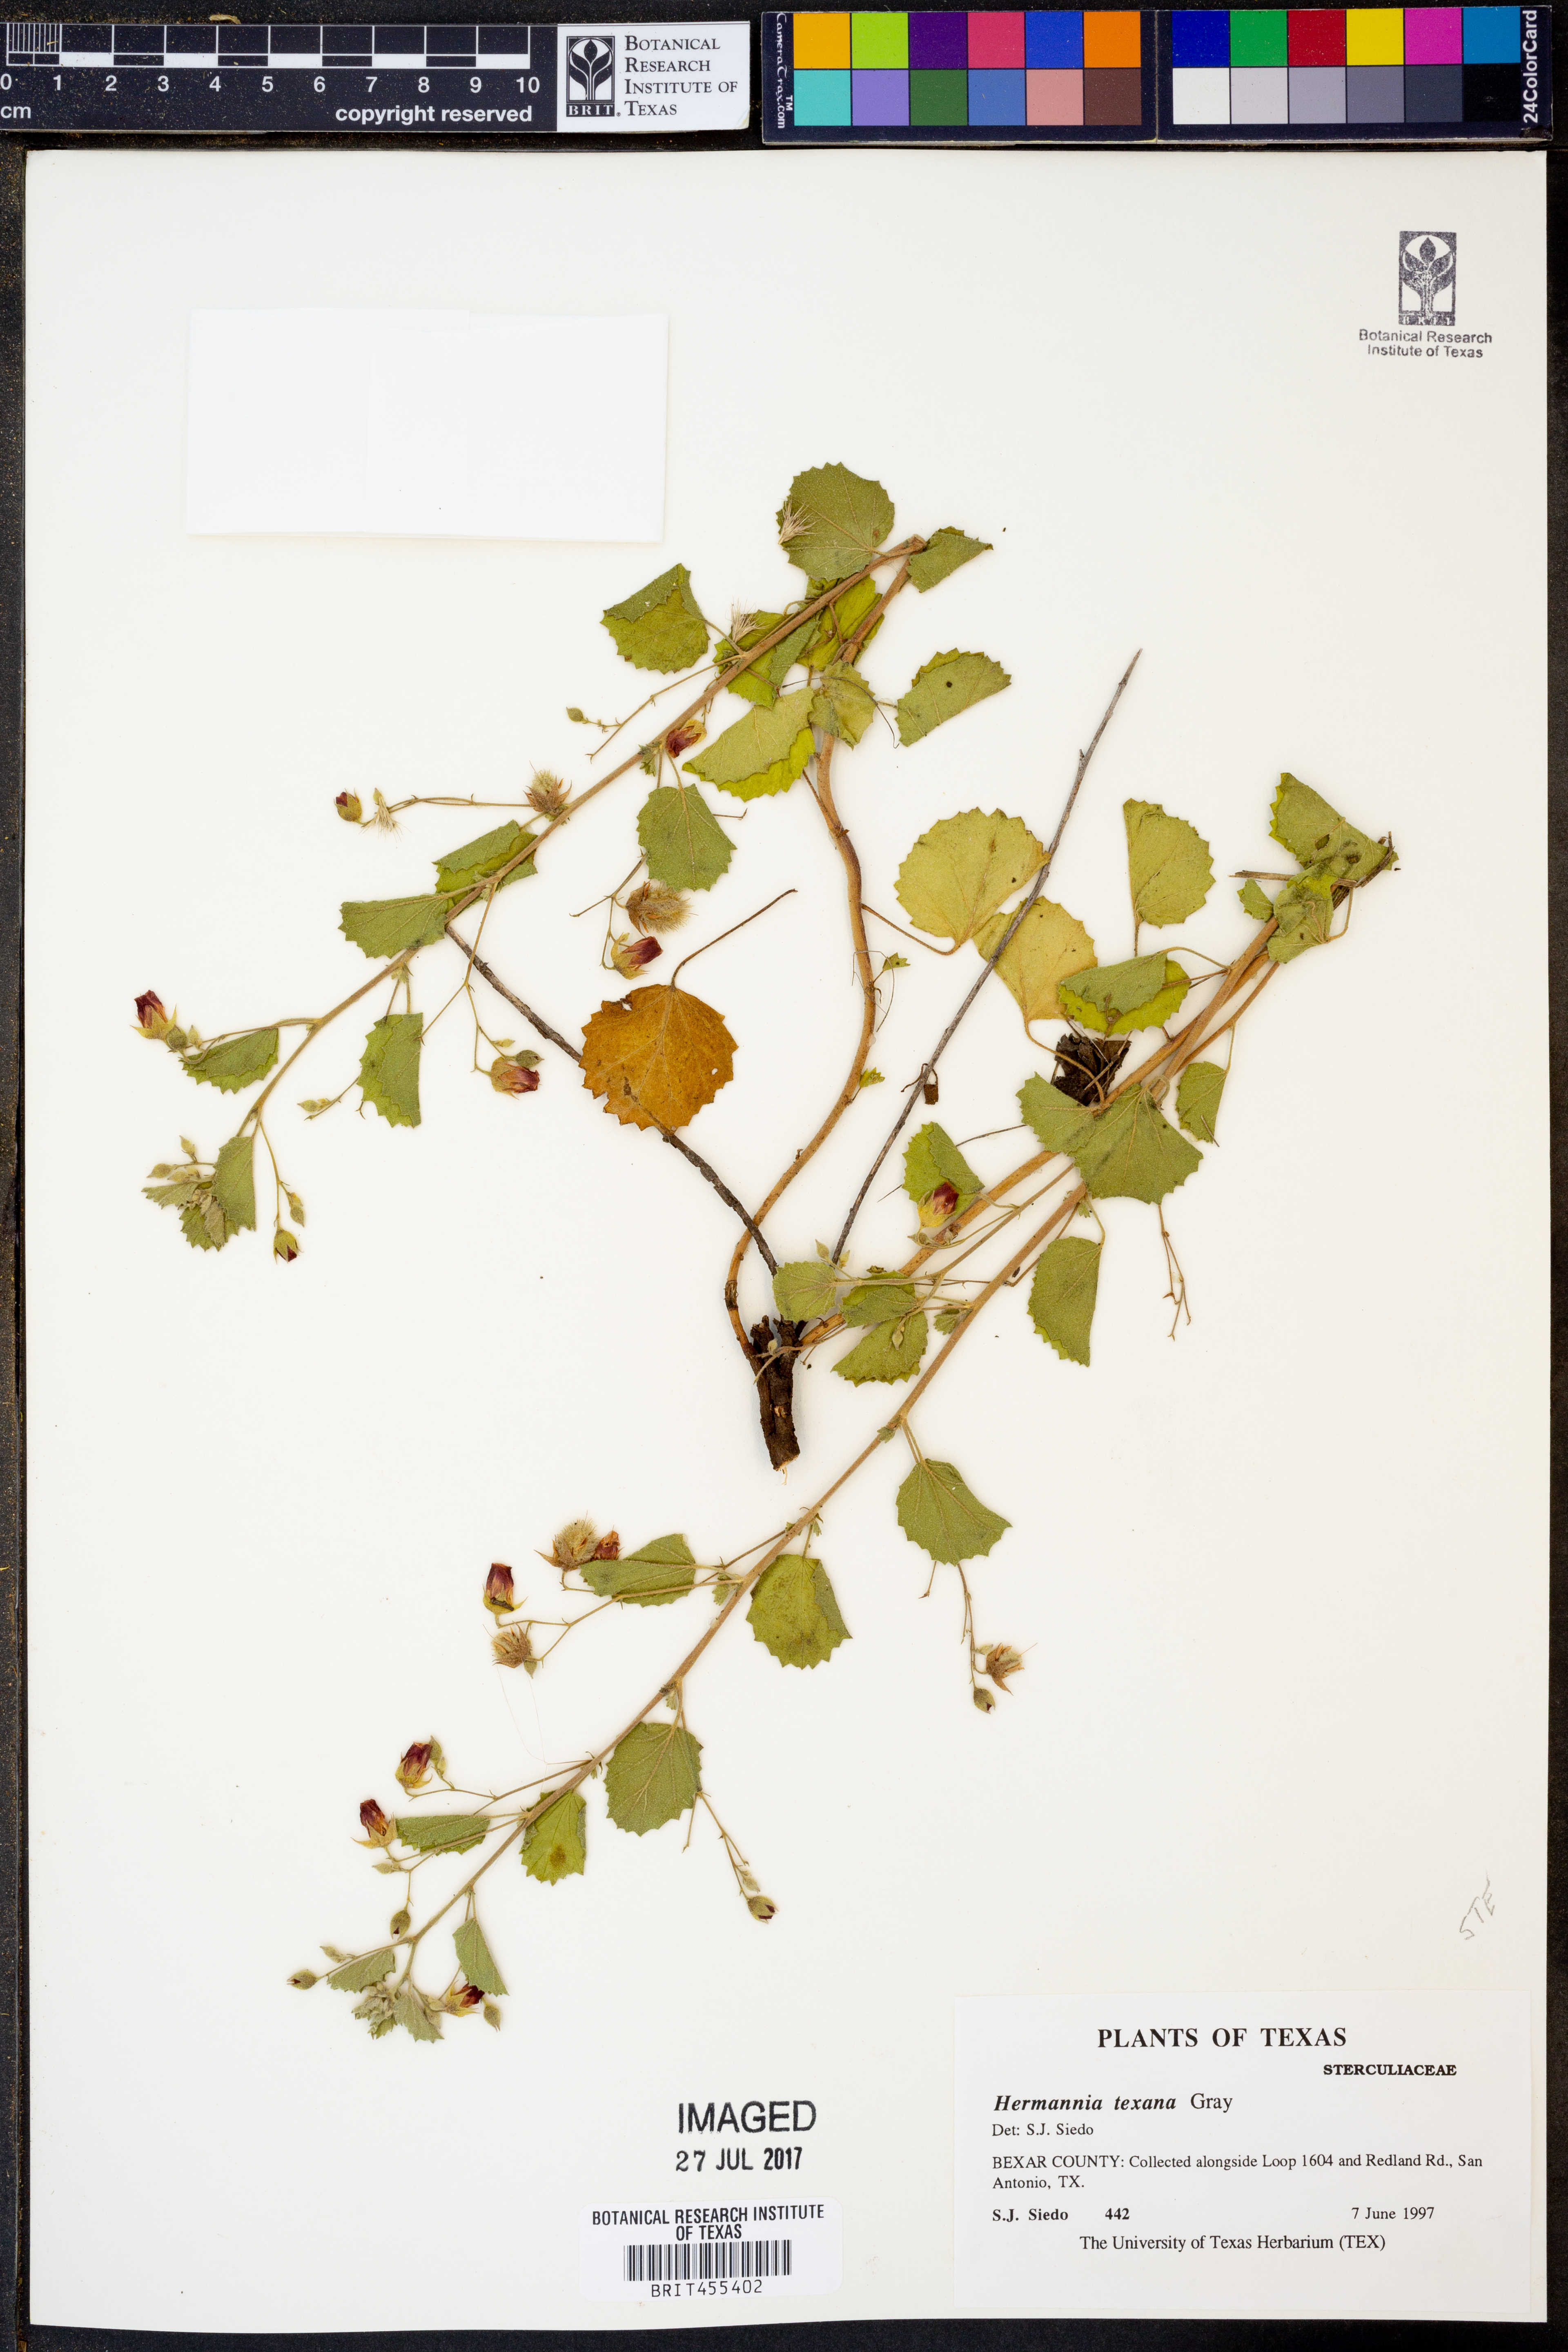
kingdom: Plantae
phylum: Tracheophyta
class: Magnoliopsida
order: Malvales
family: Malvaceae
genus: Hermannia
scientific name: Hermannia texana
